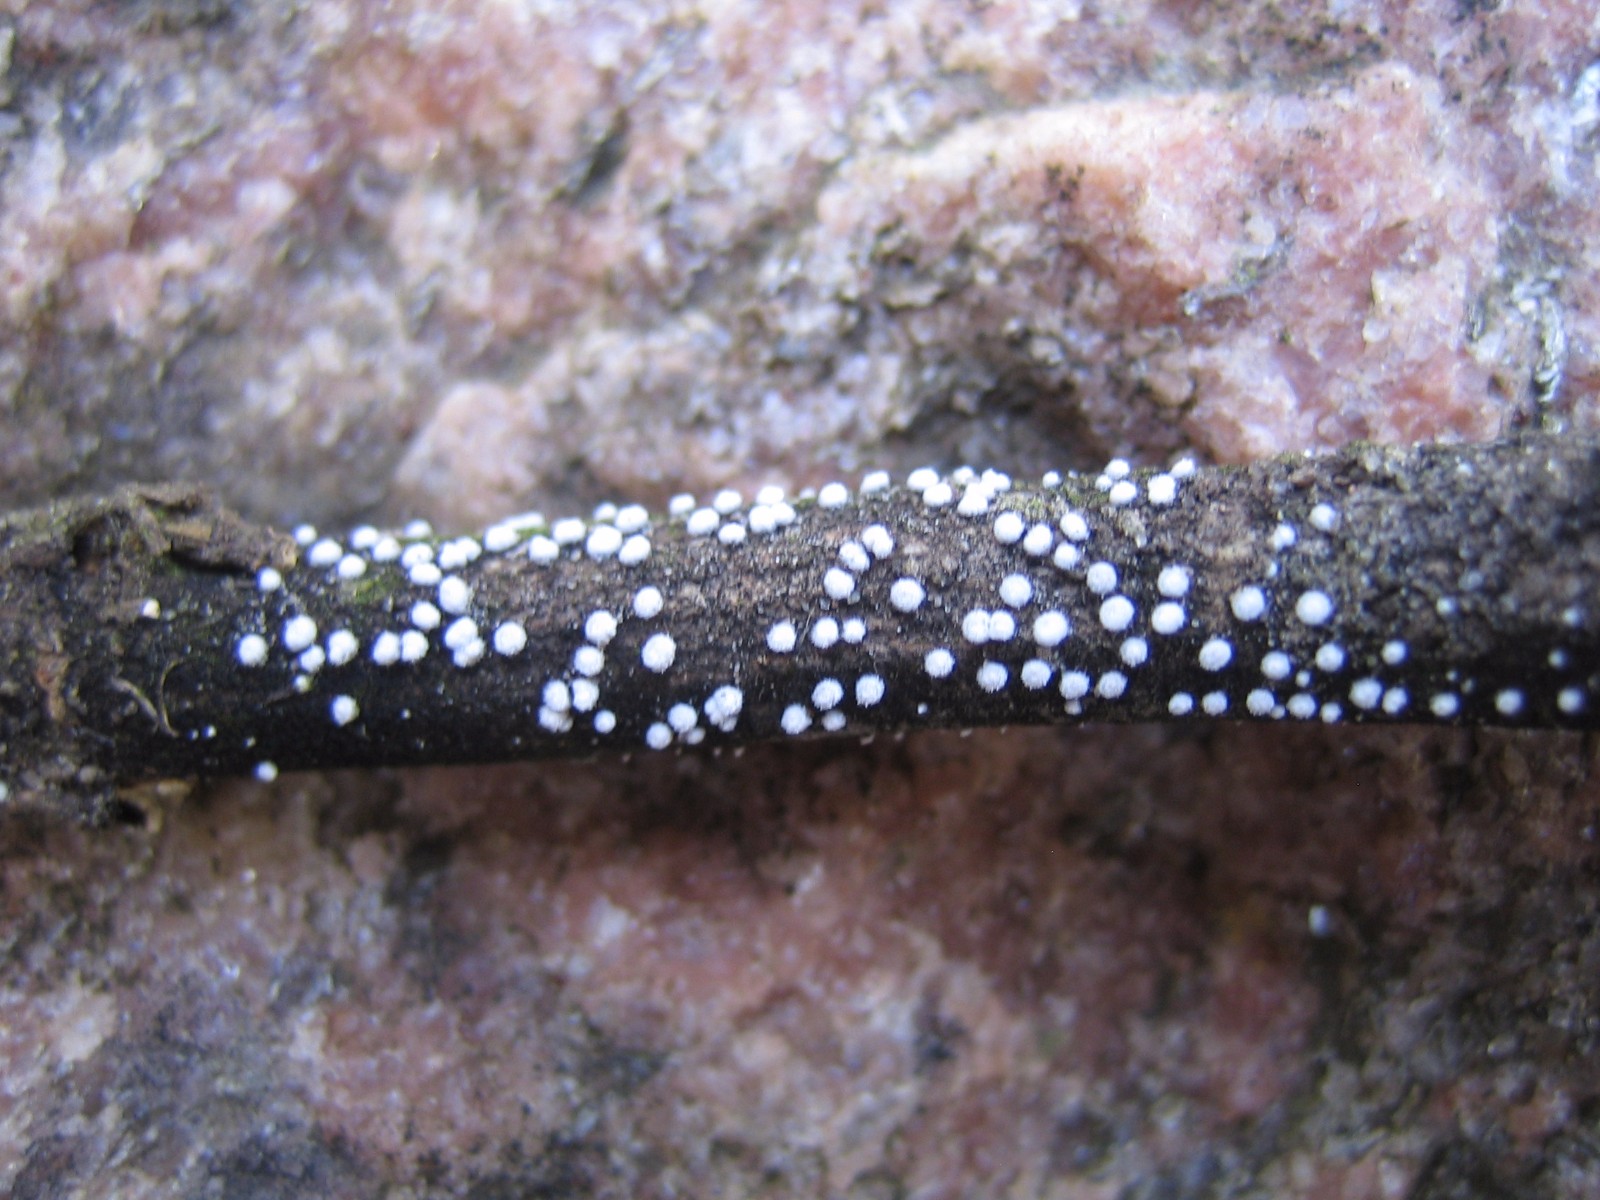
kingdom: Fungi
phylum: Basidiomycota
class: Agaricomycetes
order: Agaricales
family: Niaceae
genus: Lachnella
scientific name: Lachnella alboviolascens
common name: grå frynserede
